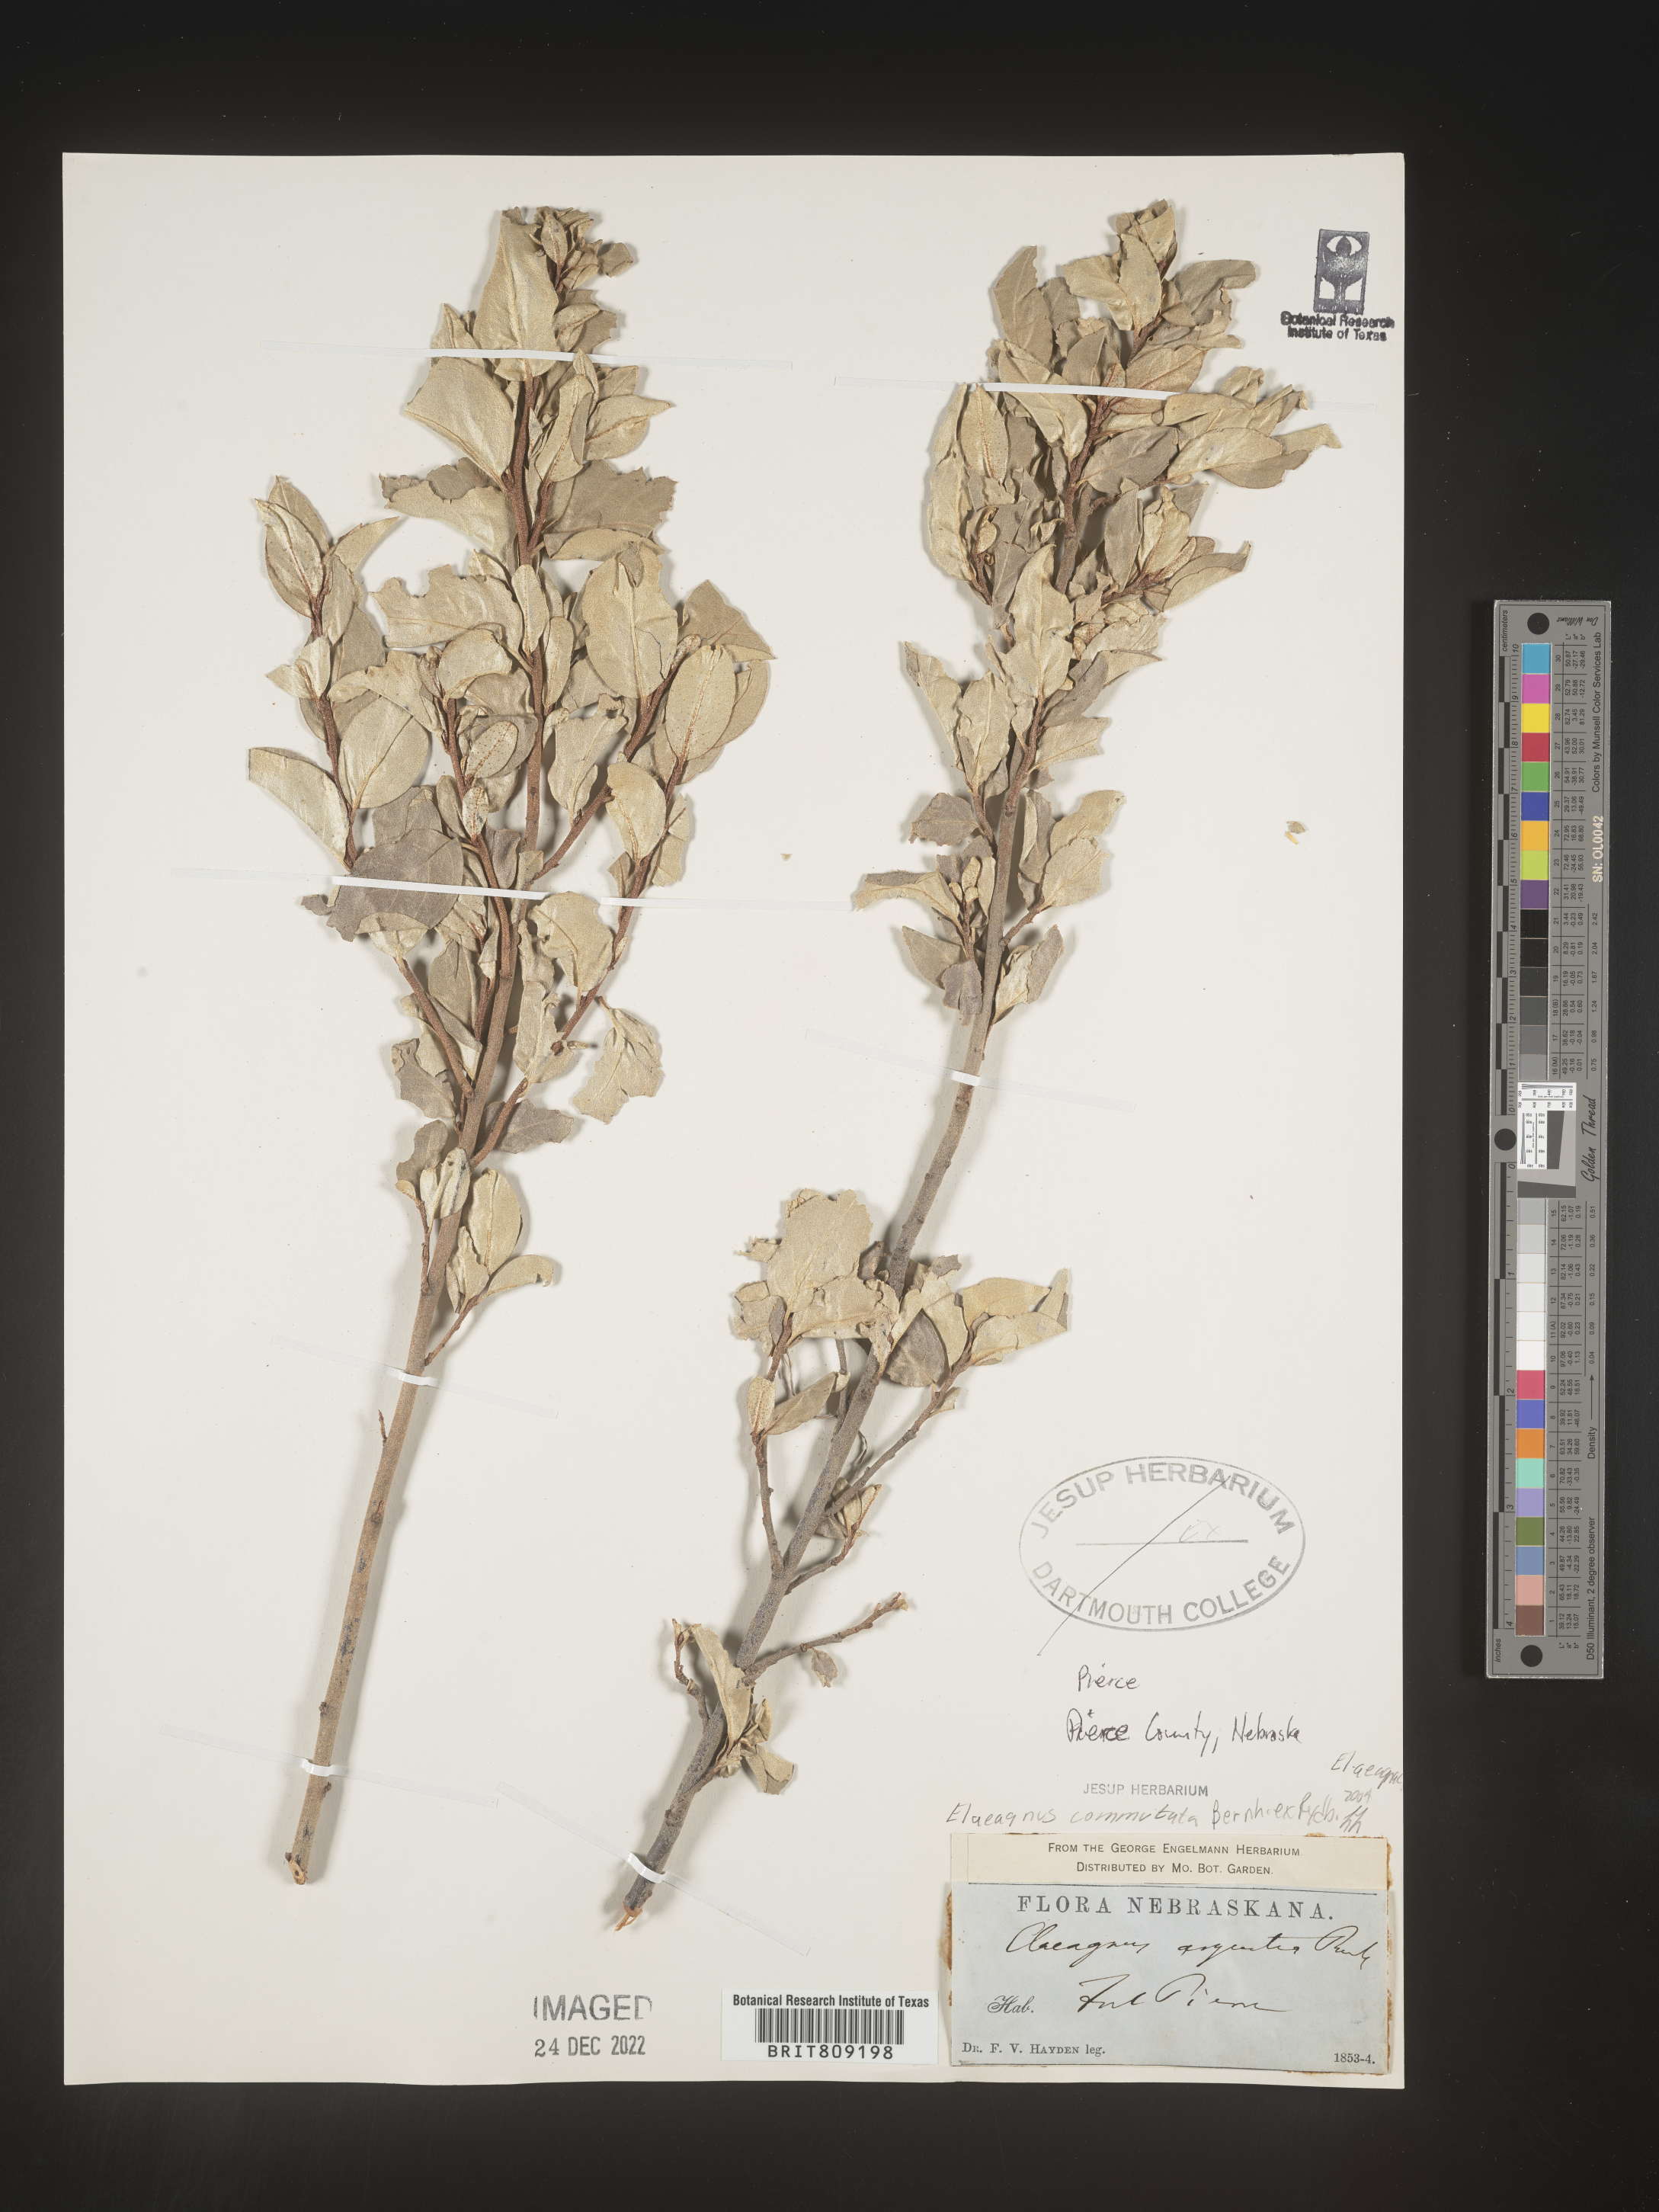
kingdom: Plantae
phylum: Tracheophyta
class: Magnoliopsida
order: Rosales
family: Elaeagnaceae
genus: Elaeagnus
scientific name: Elaeagnus
